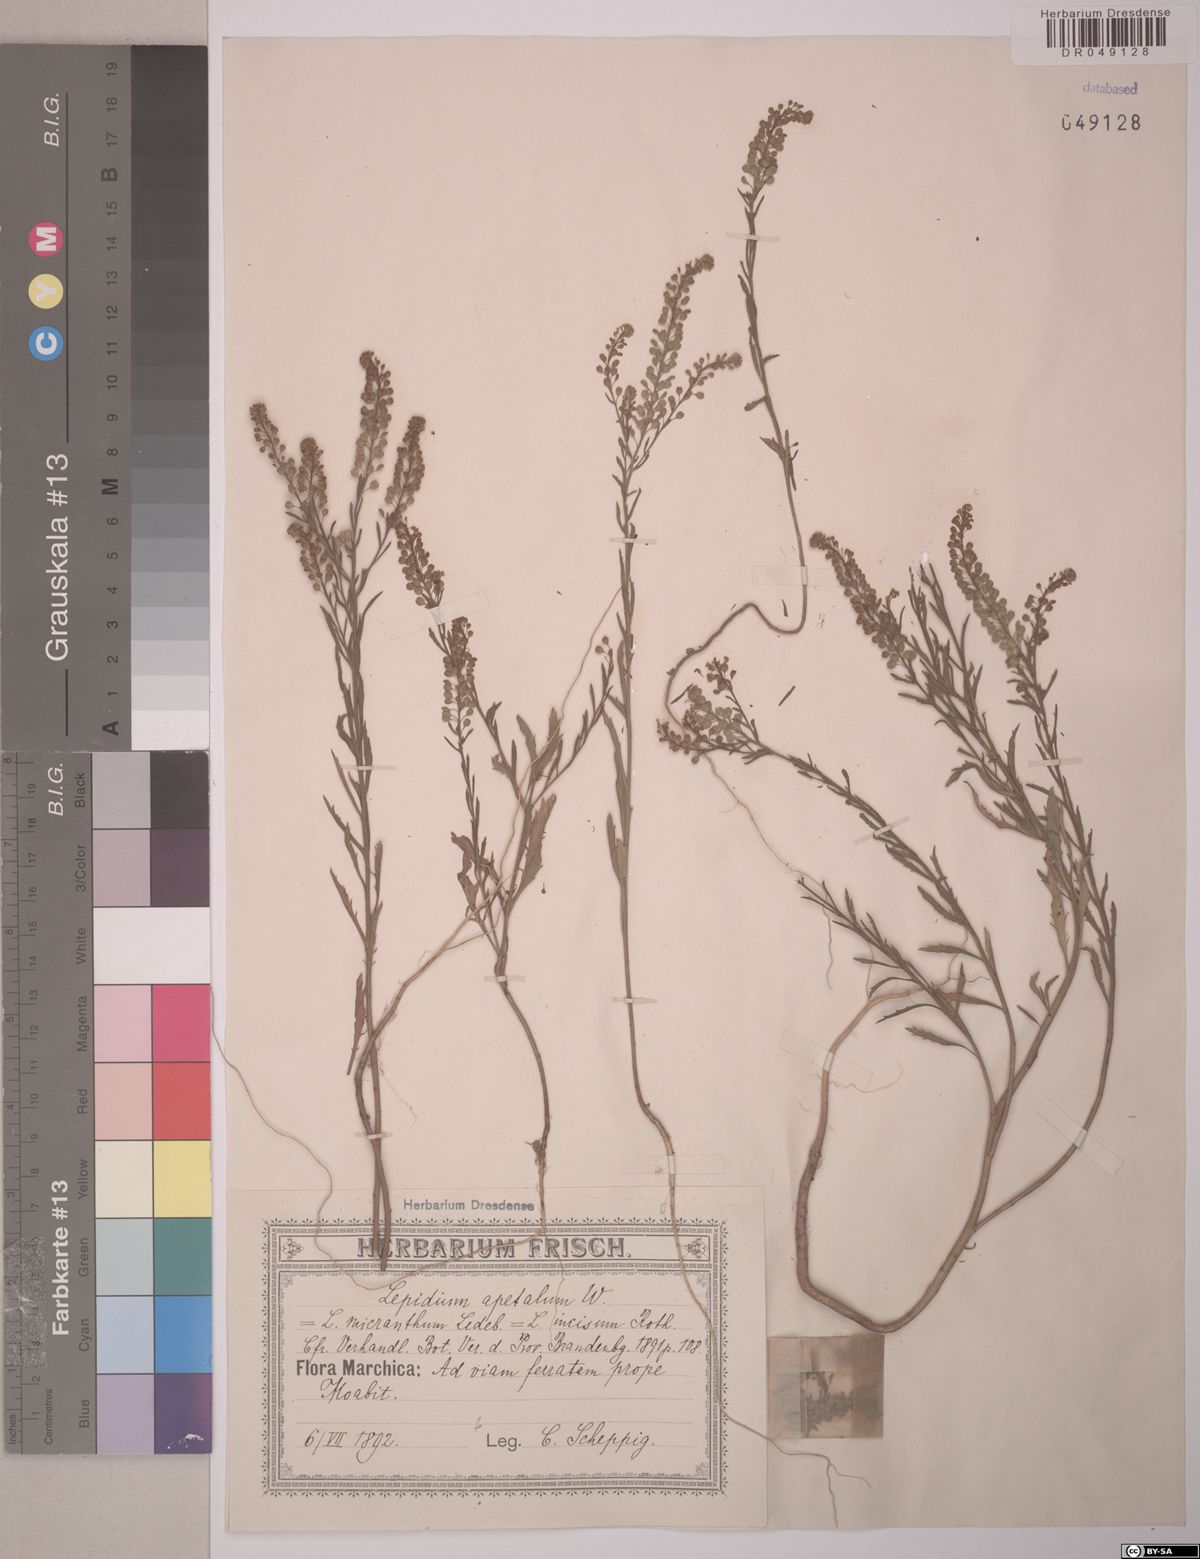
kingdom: Plantae
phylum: Tracheophyta
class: Magnoliopsida
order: Brassicales
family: Brassicaceae
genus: Lepidium
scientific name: Lepidium apetalum
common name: Pepperweed
